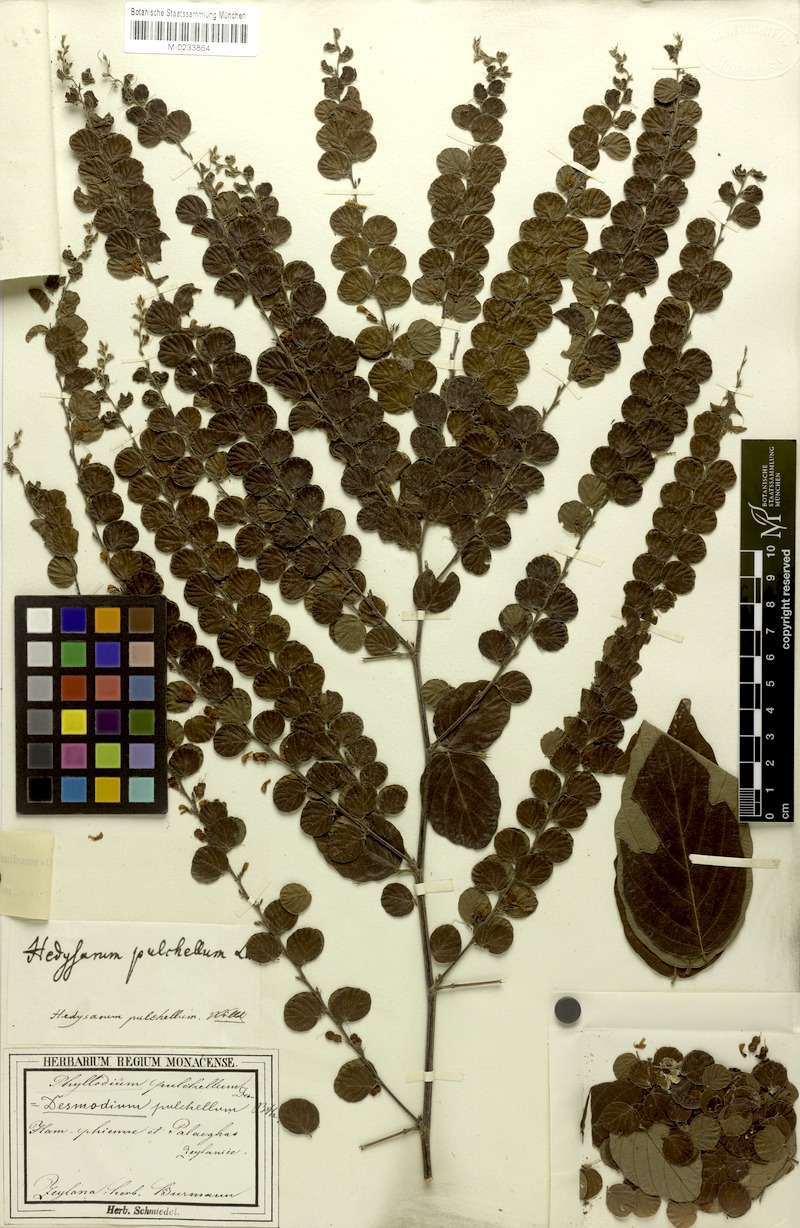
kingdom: Plantae
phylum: Tracheophyta
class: Magnoliopsida
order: Fabales
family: Fabaceae
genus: Phyllodium
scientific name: Phyllodium pulchellum
